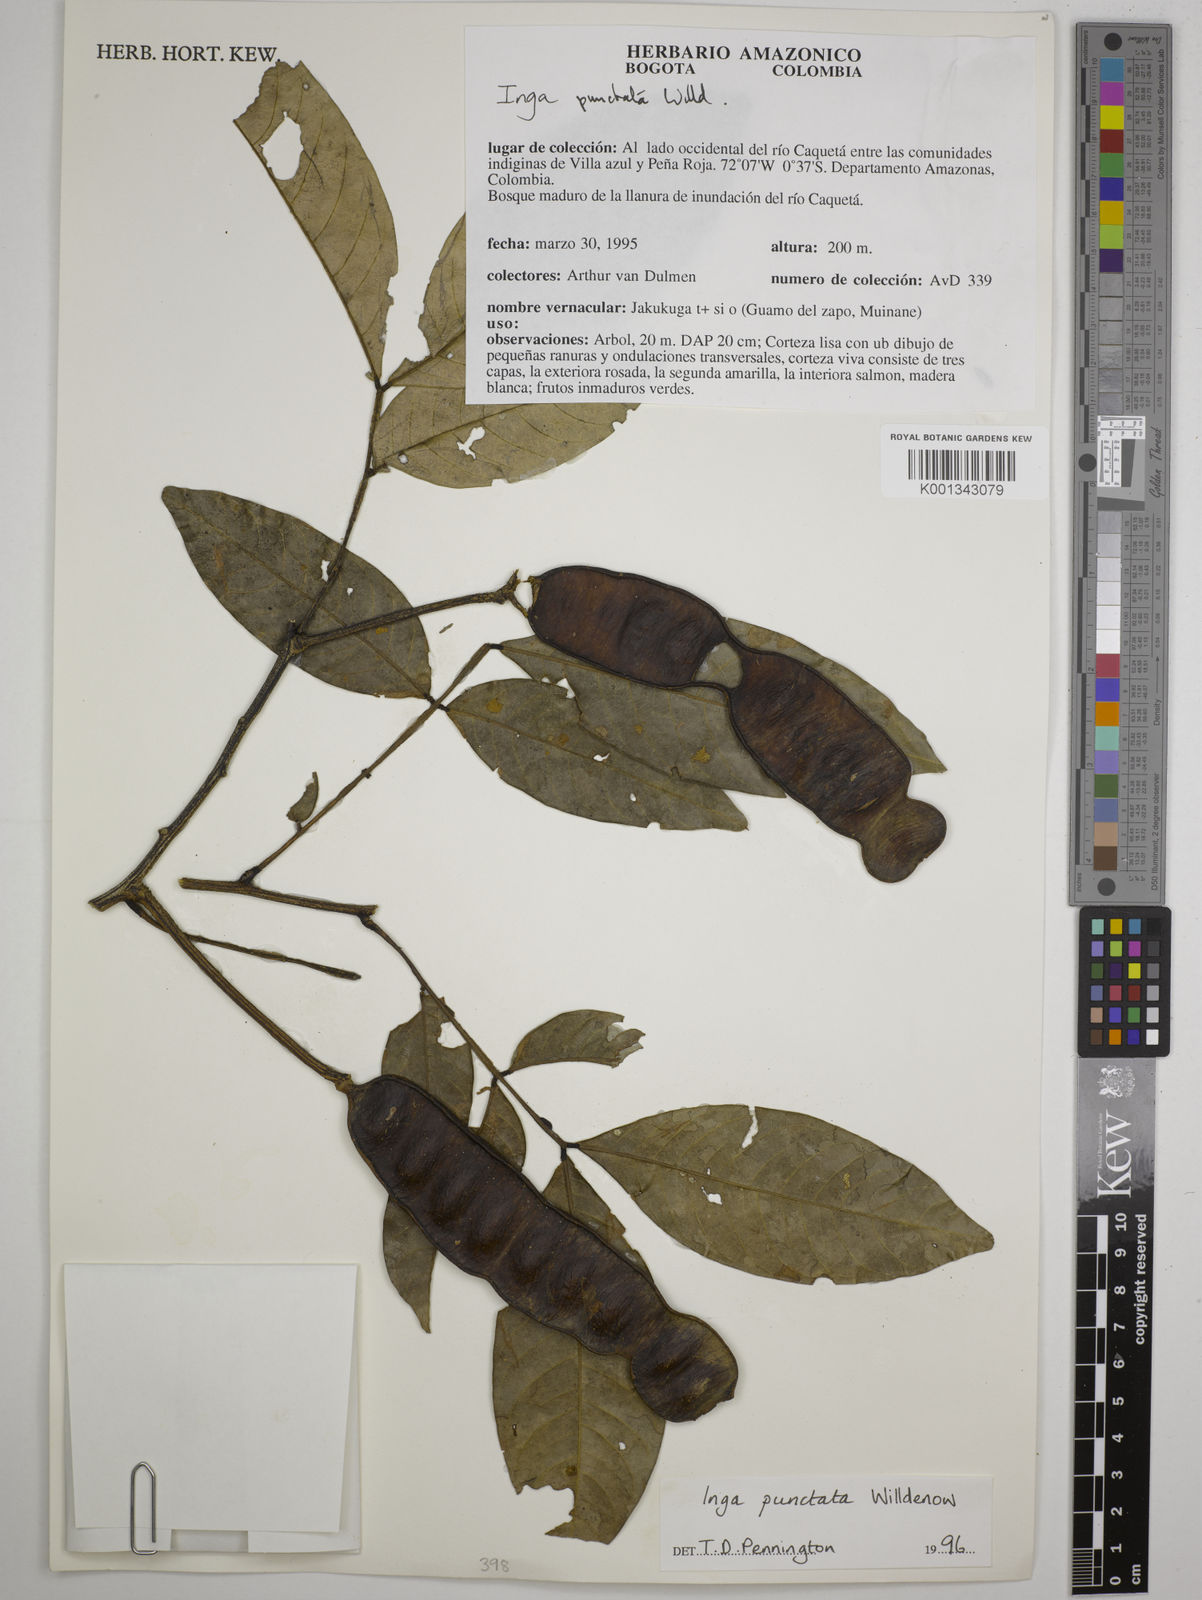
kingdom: Plantae
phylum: Tracheophyta
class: Magnoliopsida
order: Fabales
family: Fabaceae
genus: Inga
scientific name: Inga punctata
